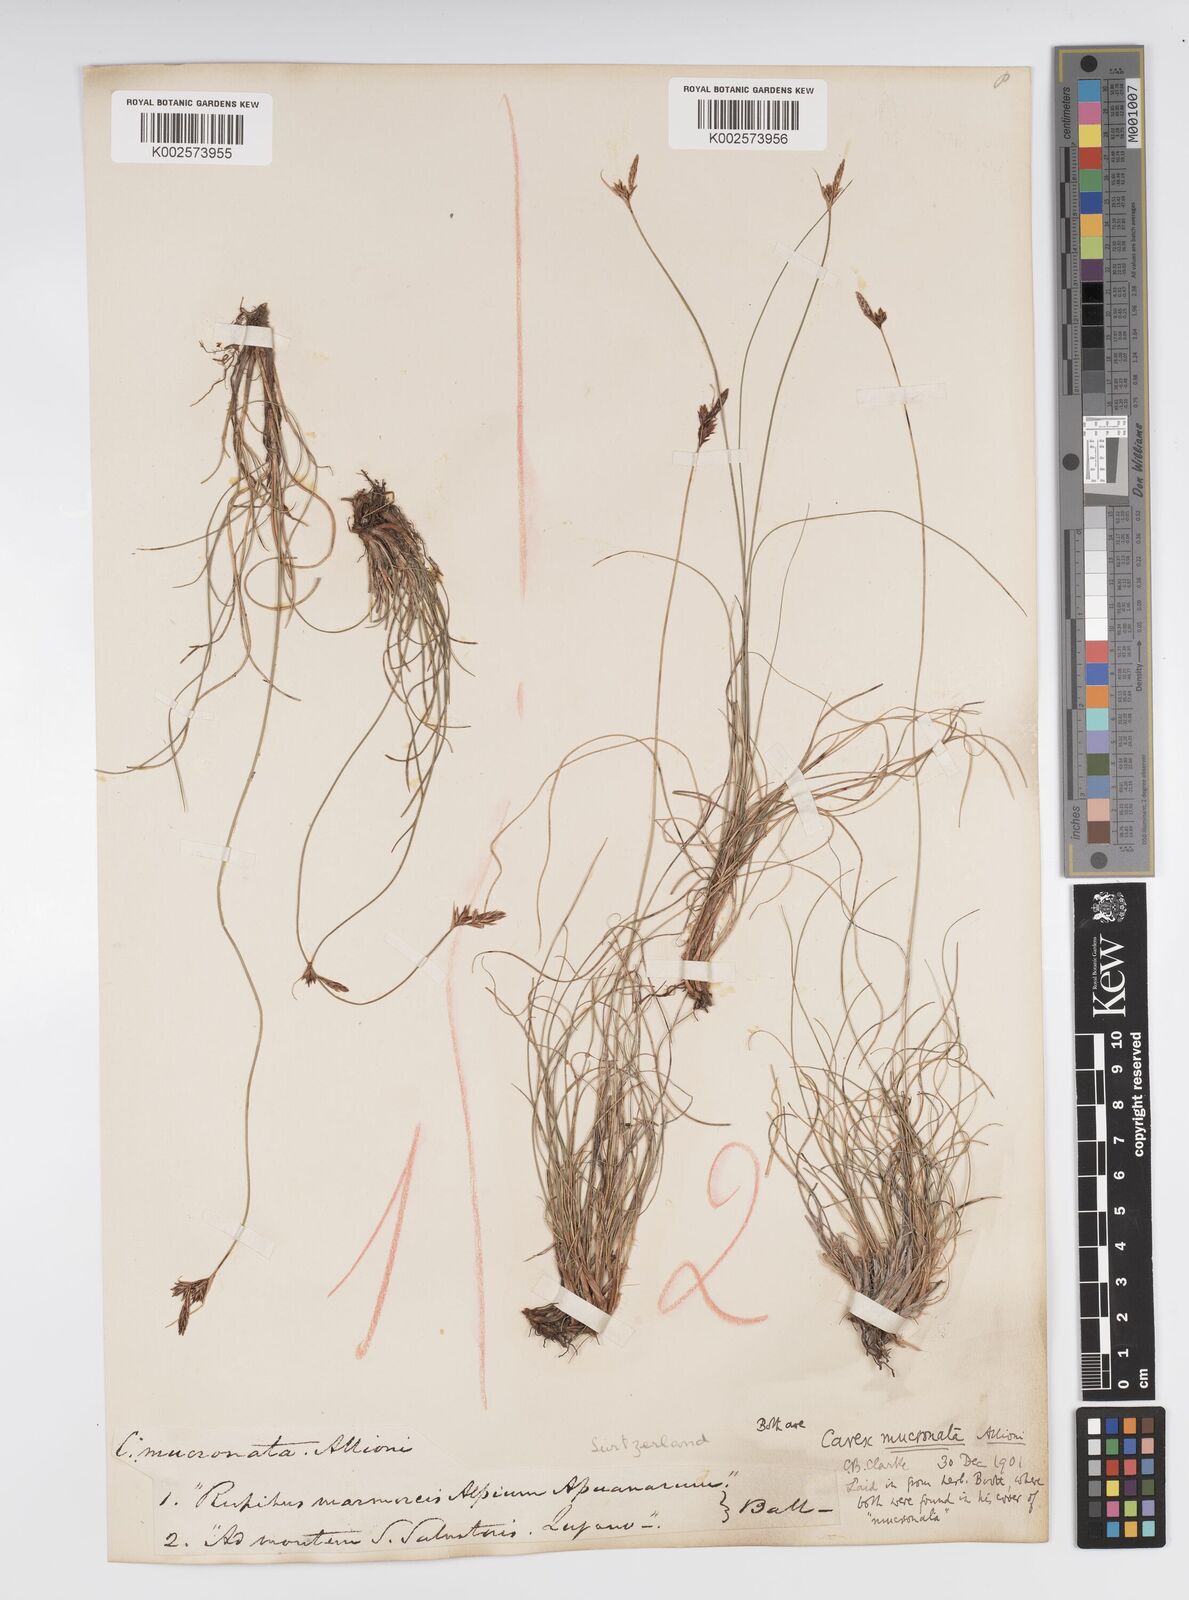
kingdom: Plantae
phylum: Tracheophyta
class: Liliopsida
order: Poales
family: Cyperaceae
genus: Carex
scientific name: Carex mucronata
